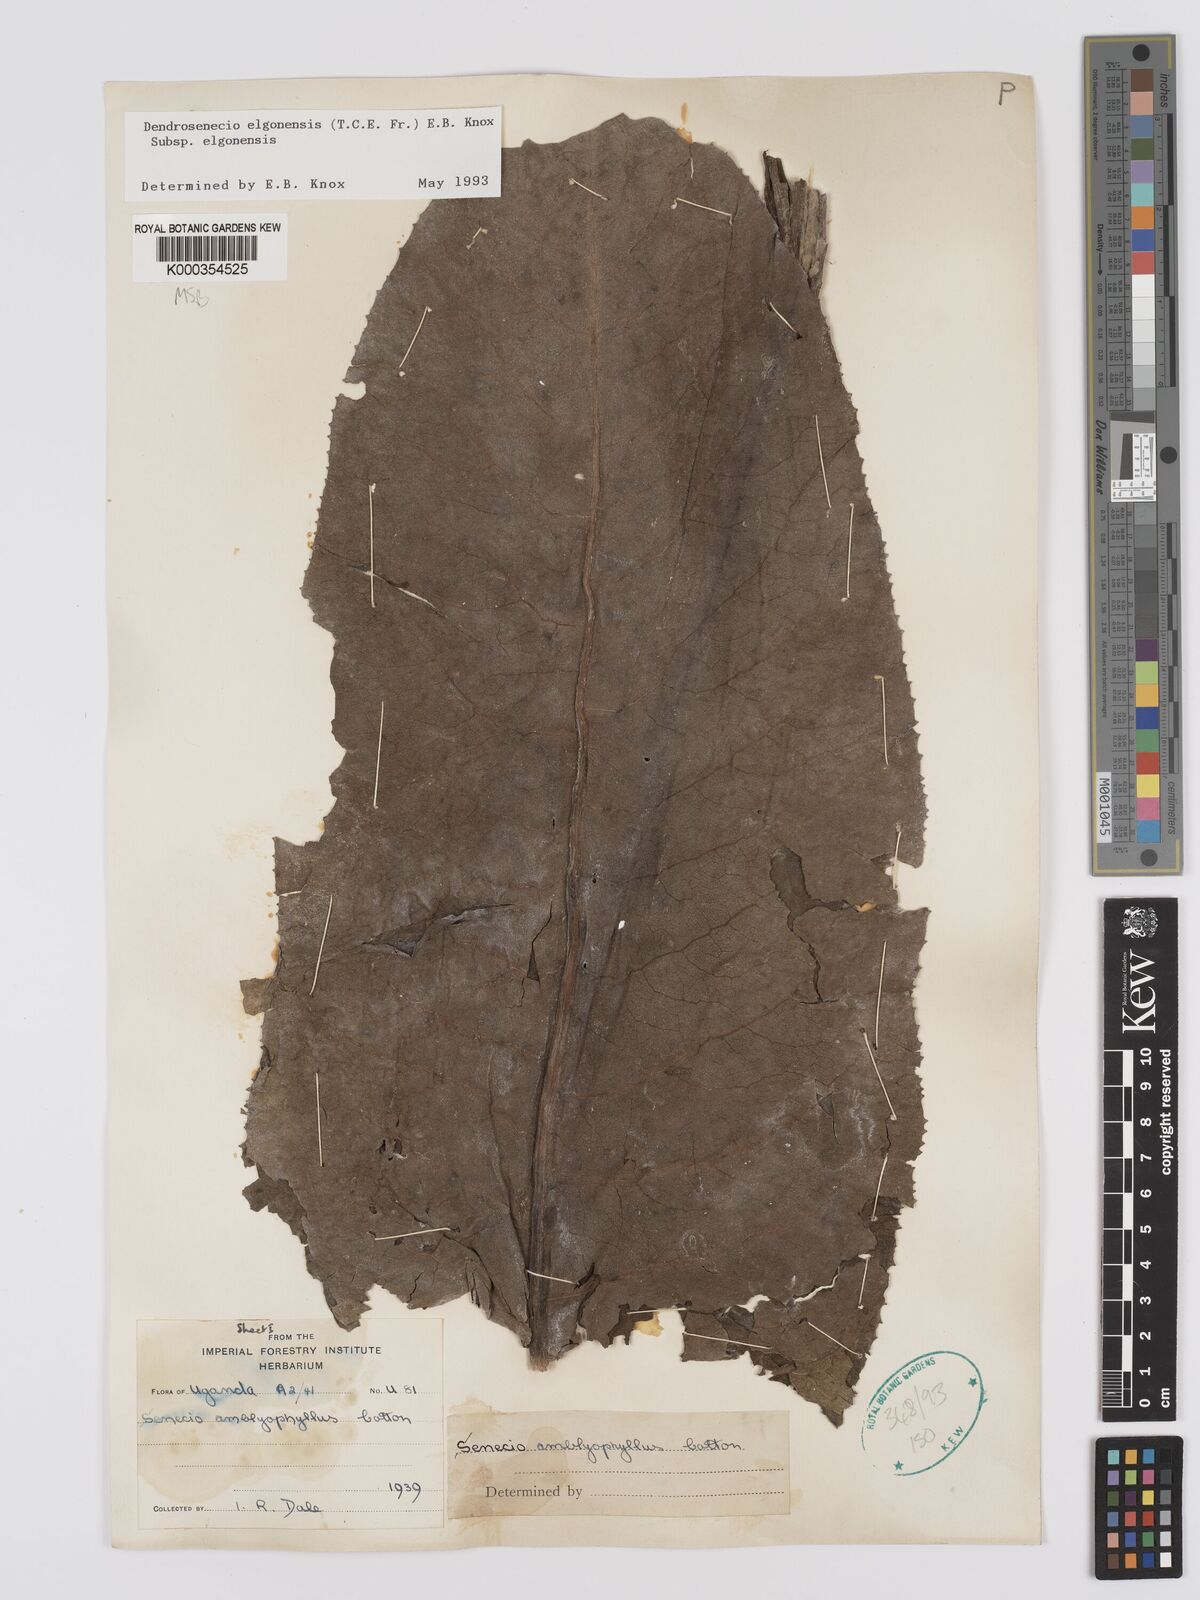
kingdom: Plantae
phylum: Tracheophyta
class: Magnoliopsida
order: Asterales
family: Asteraceae
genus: Dendrosenecio
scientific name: Dendrosenecio elgonensis
